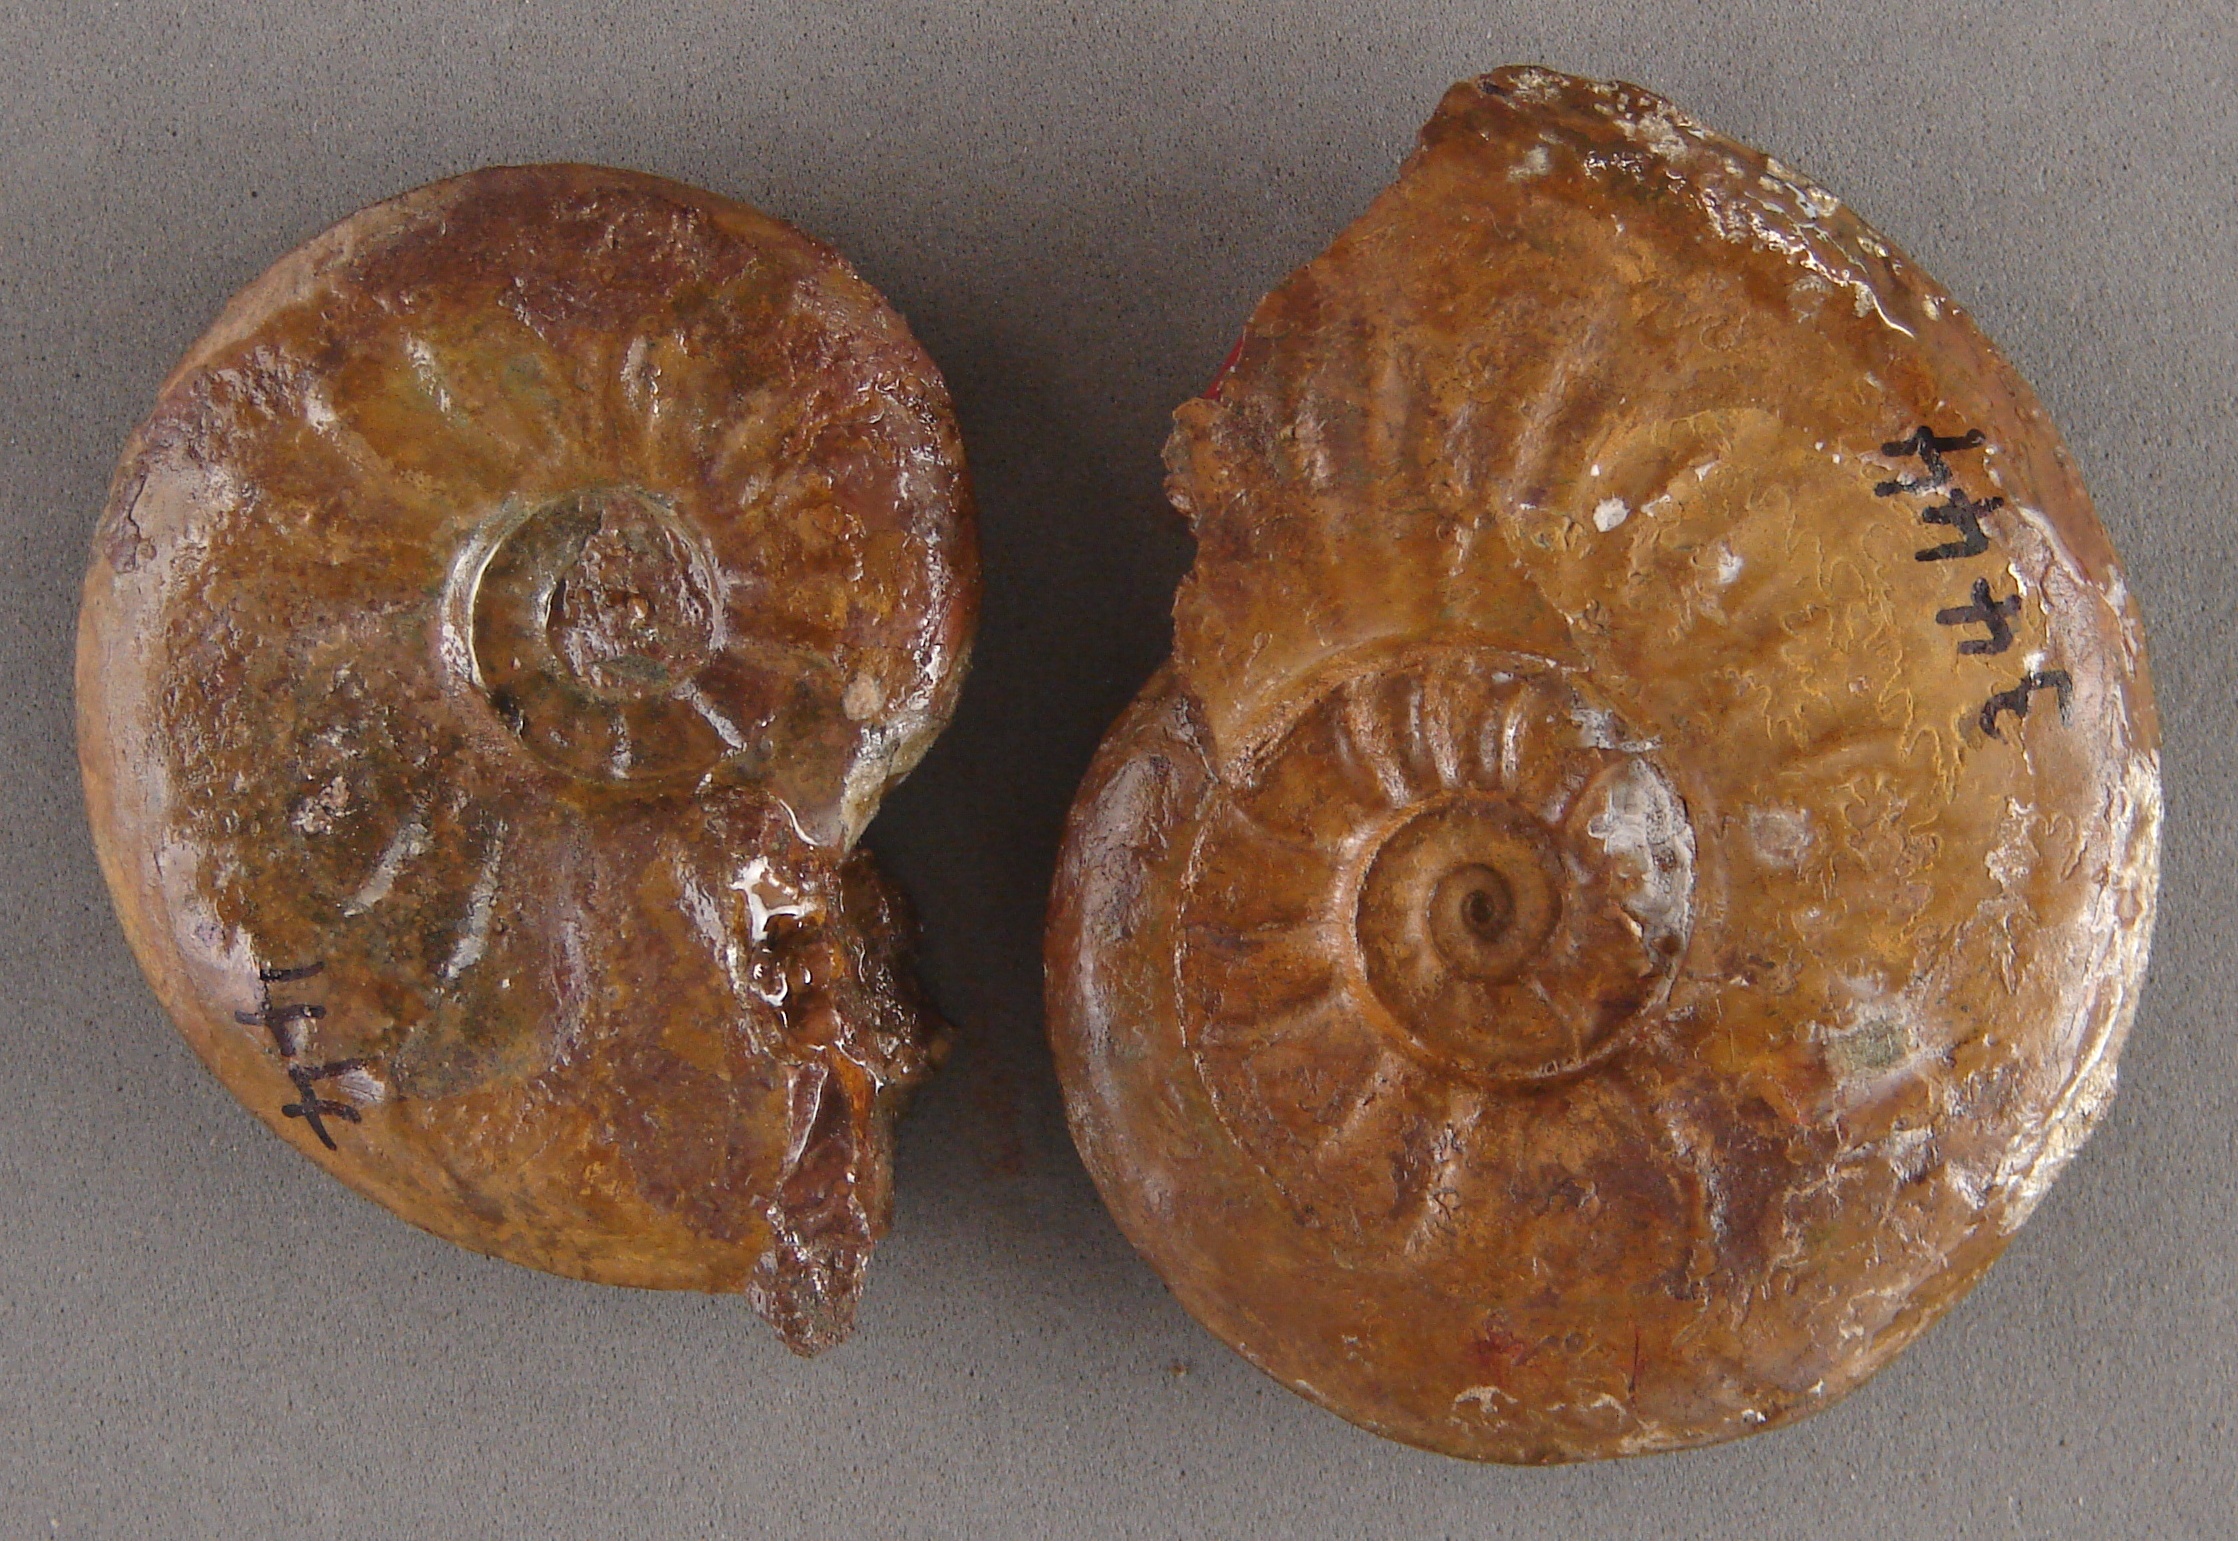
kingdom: Animalia
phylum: Mollusca
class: Cephalopoda
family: Hildoceratidae
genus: Cotteswoldia
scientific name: Cotteswoldia
